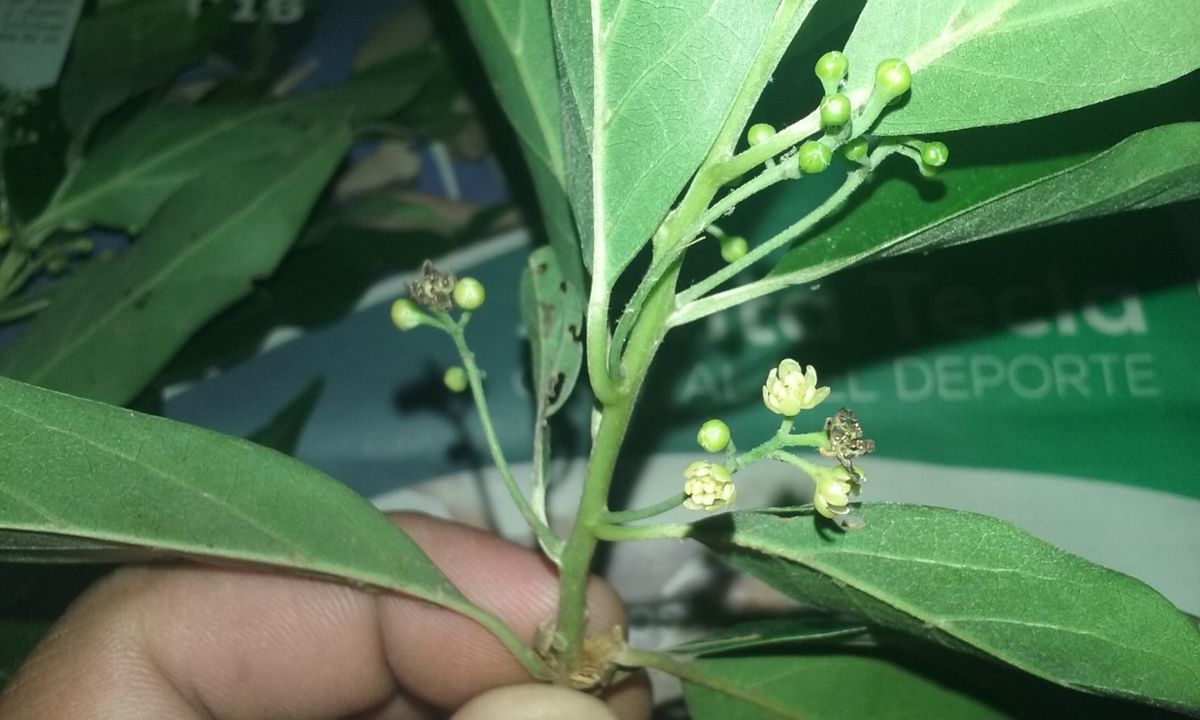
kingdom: Plantae
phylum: Tracheophyta
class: Magnoliopsida
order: Laurales
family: Lauraceae
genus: Ocotea
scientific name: Ocotea effusa
